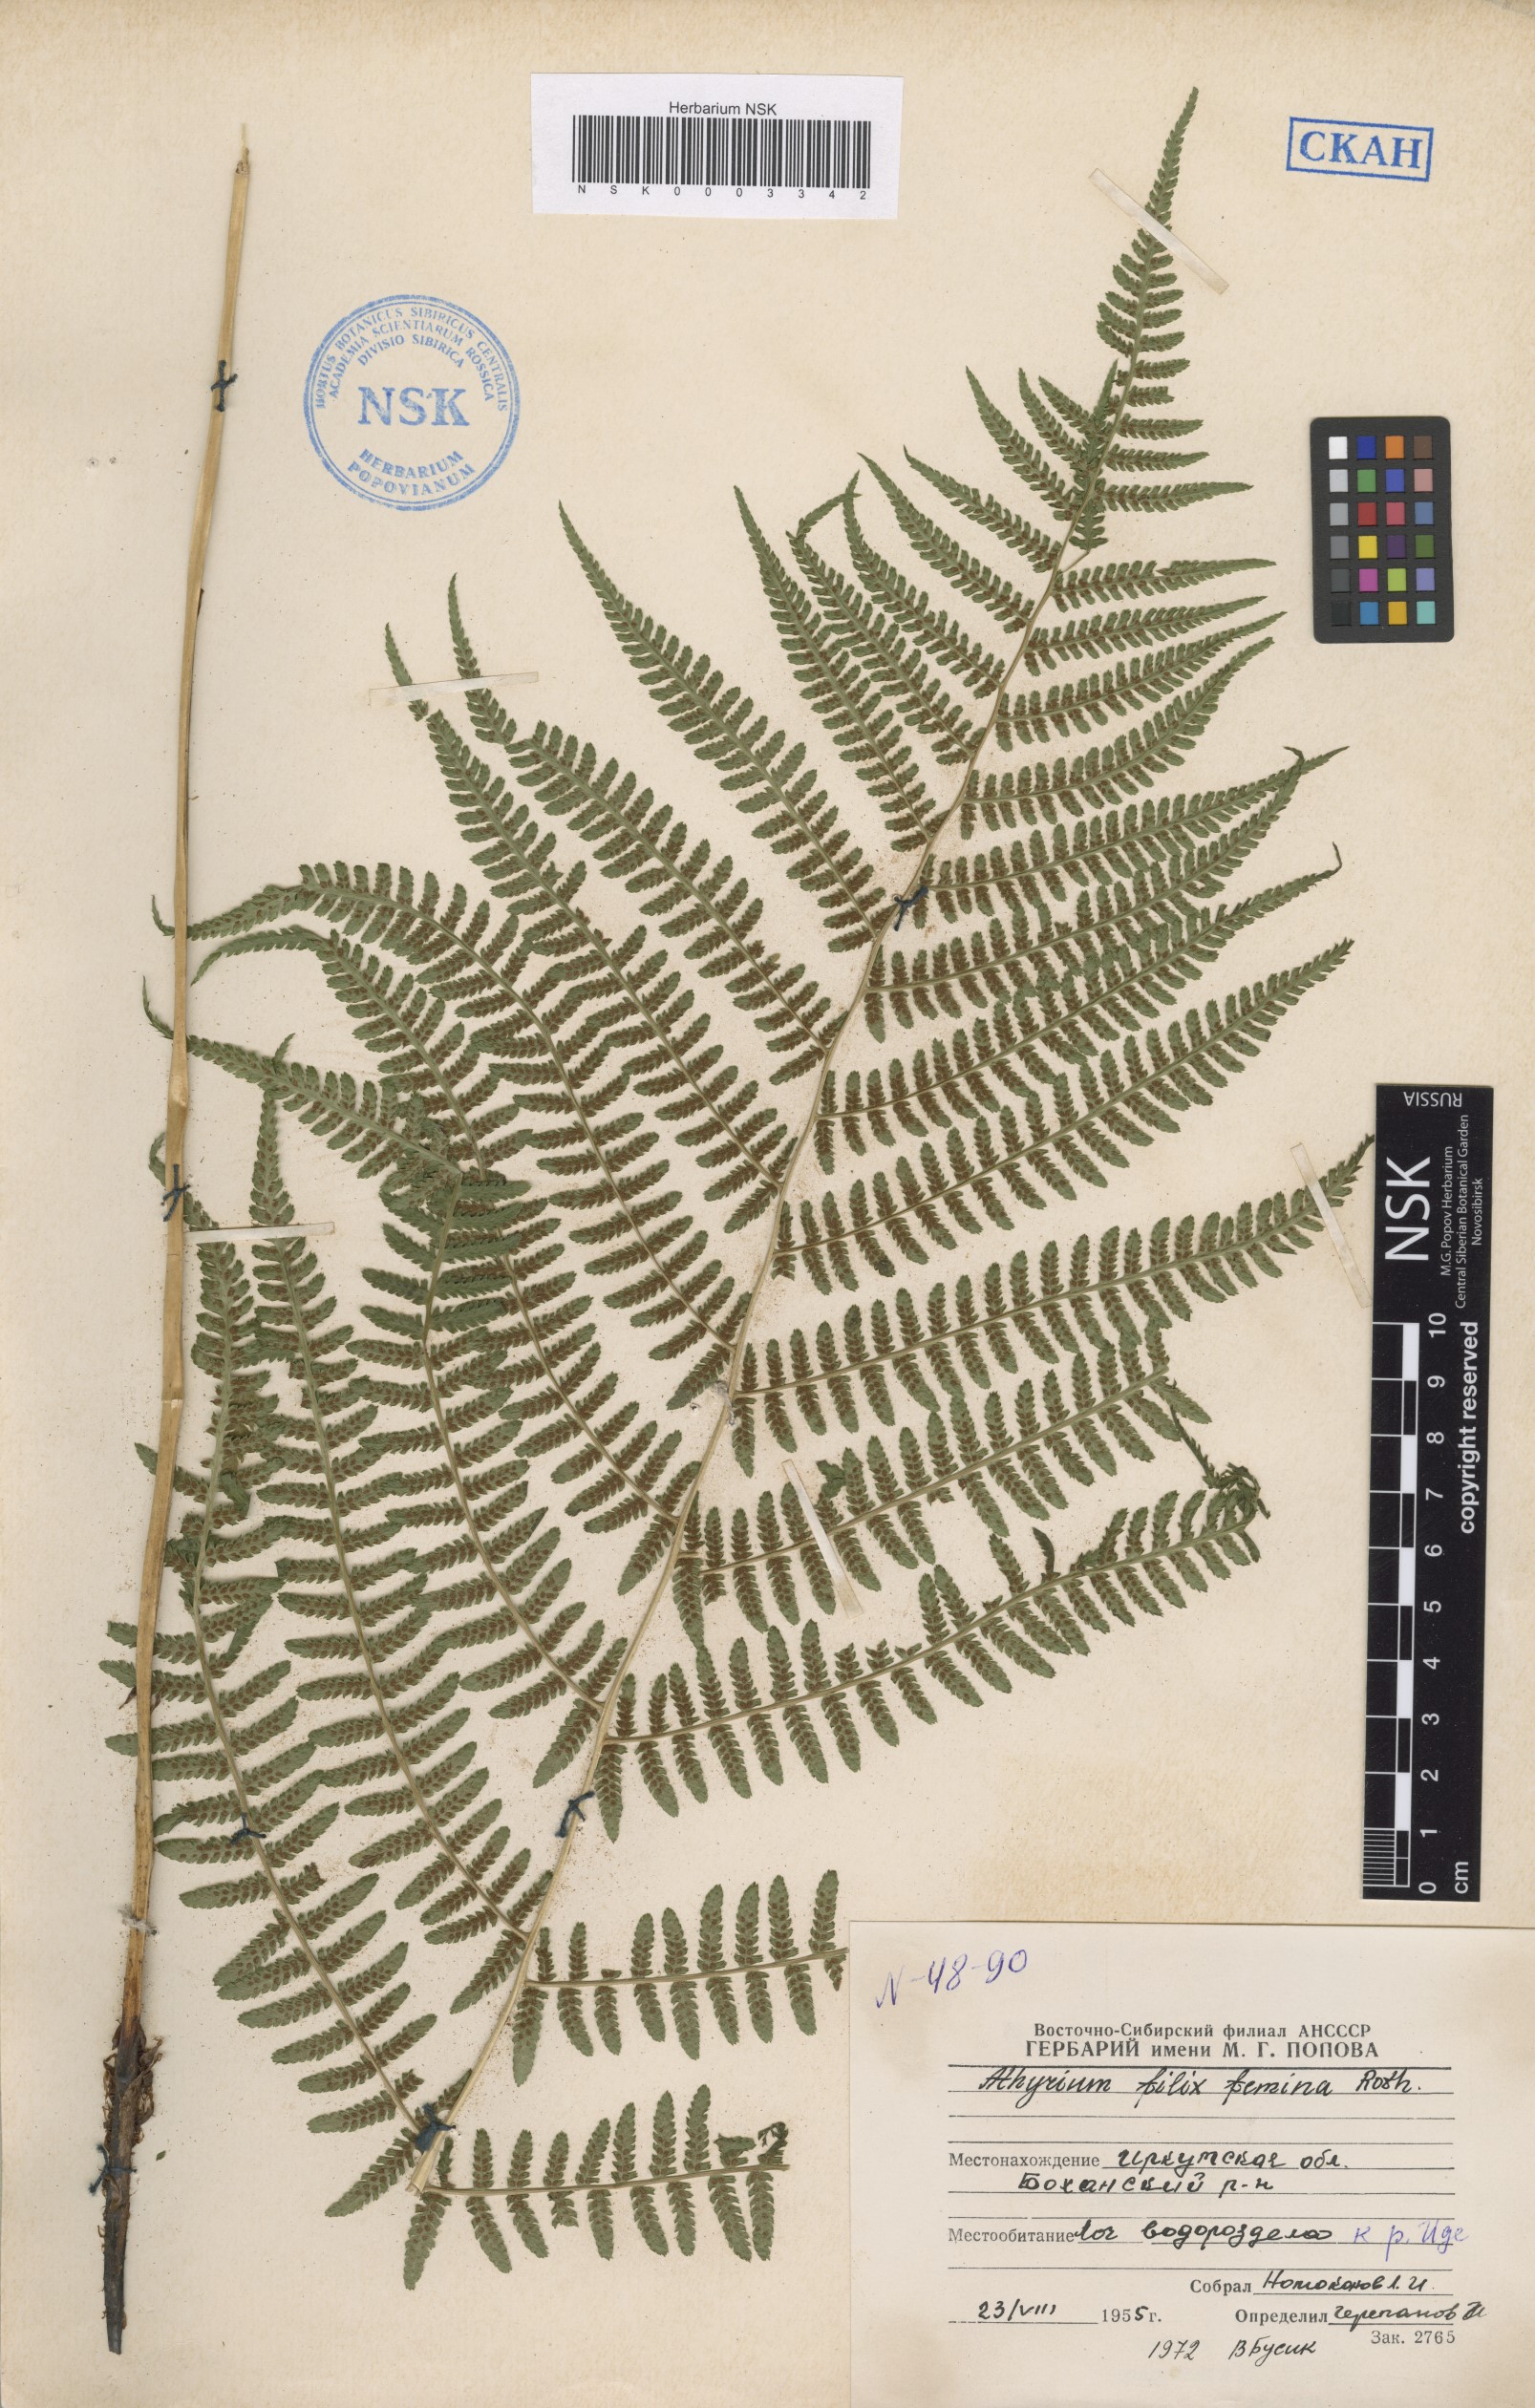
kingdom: Plantae
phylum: Tracheophyta
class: Polypodiopsida
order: Polypodiales
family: Athyriaceae
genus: Athyrium
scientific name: Athyrium filix-femina
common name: Lady fern
